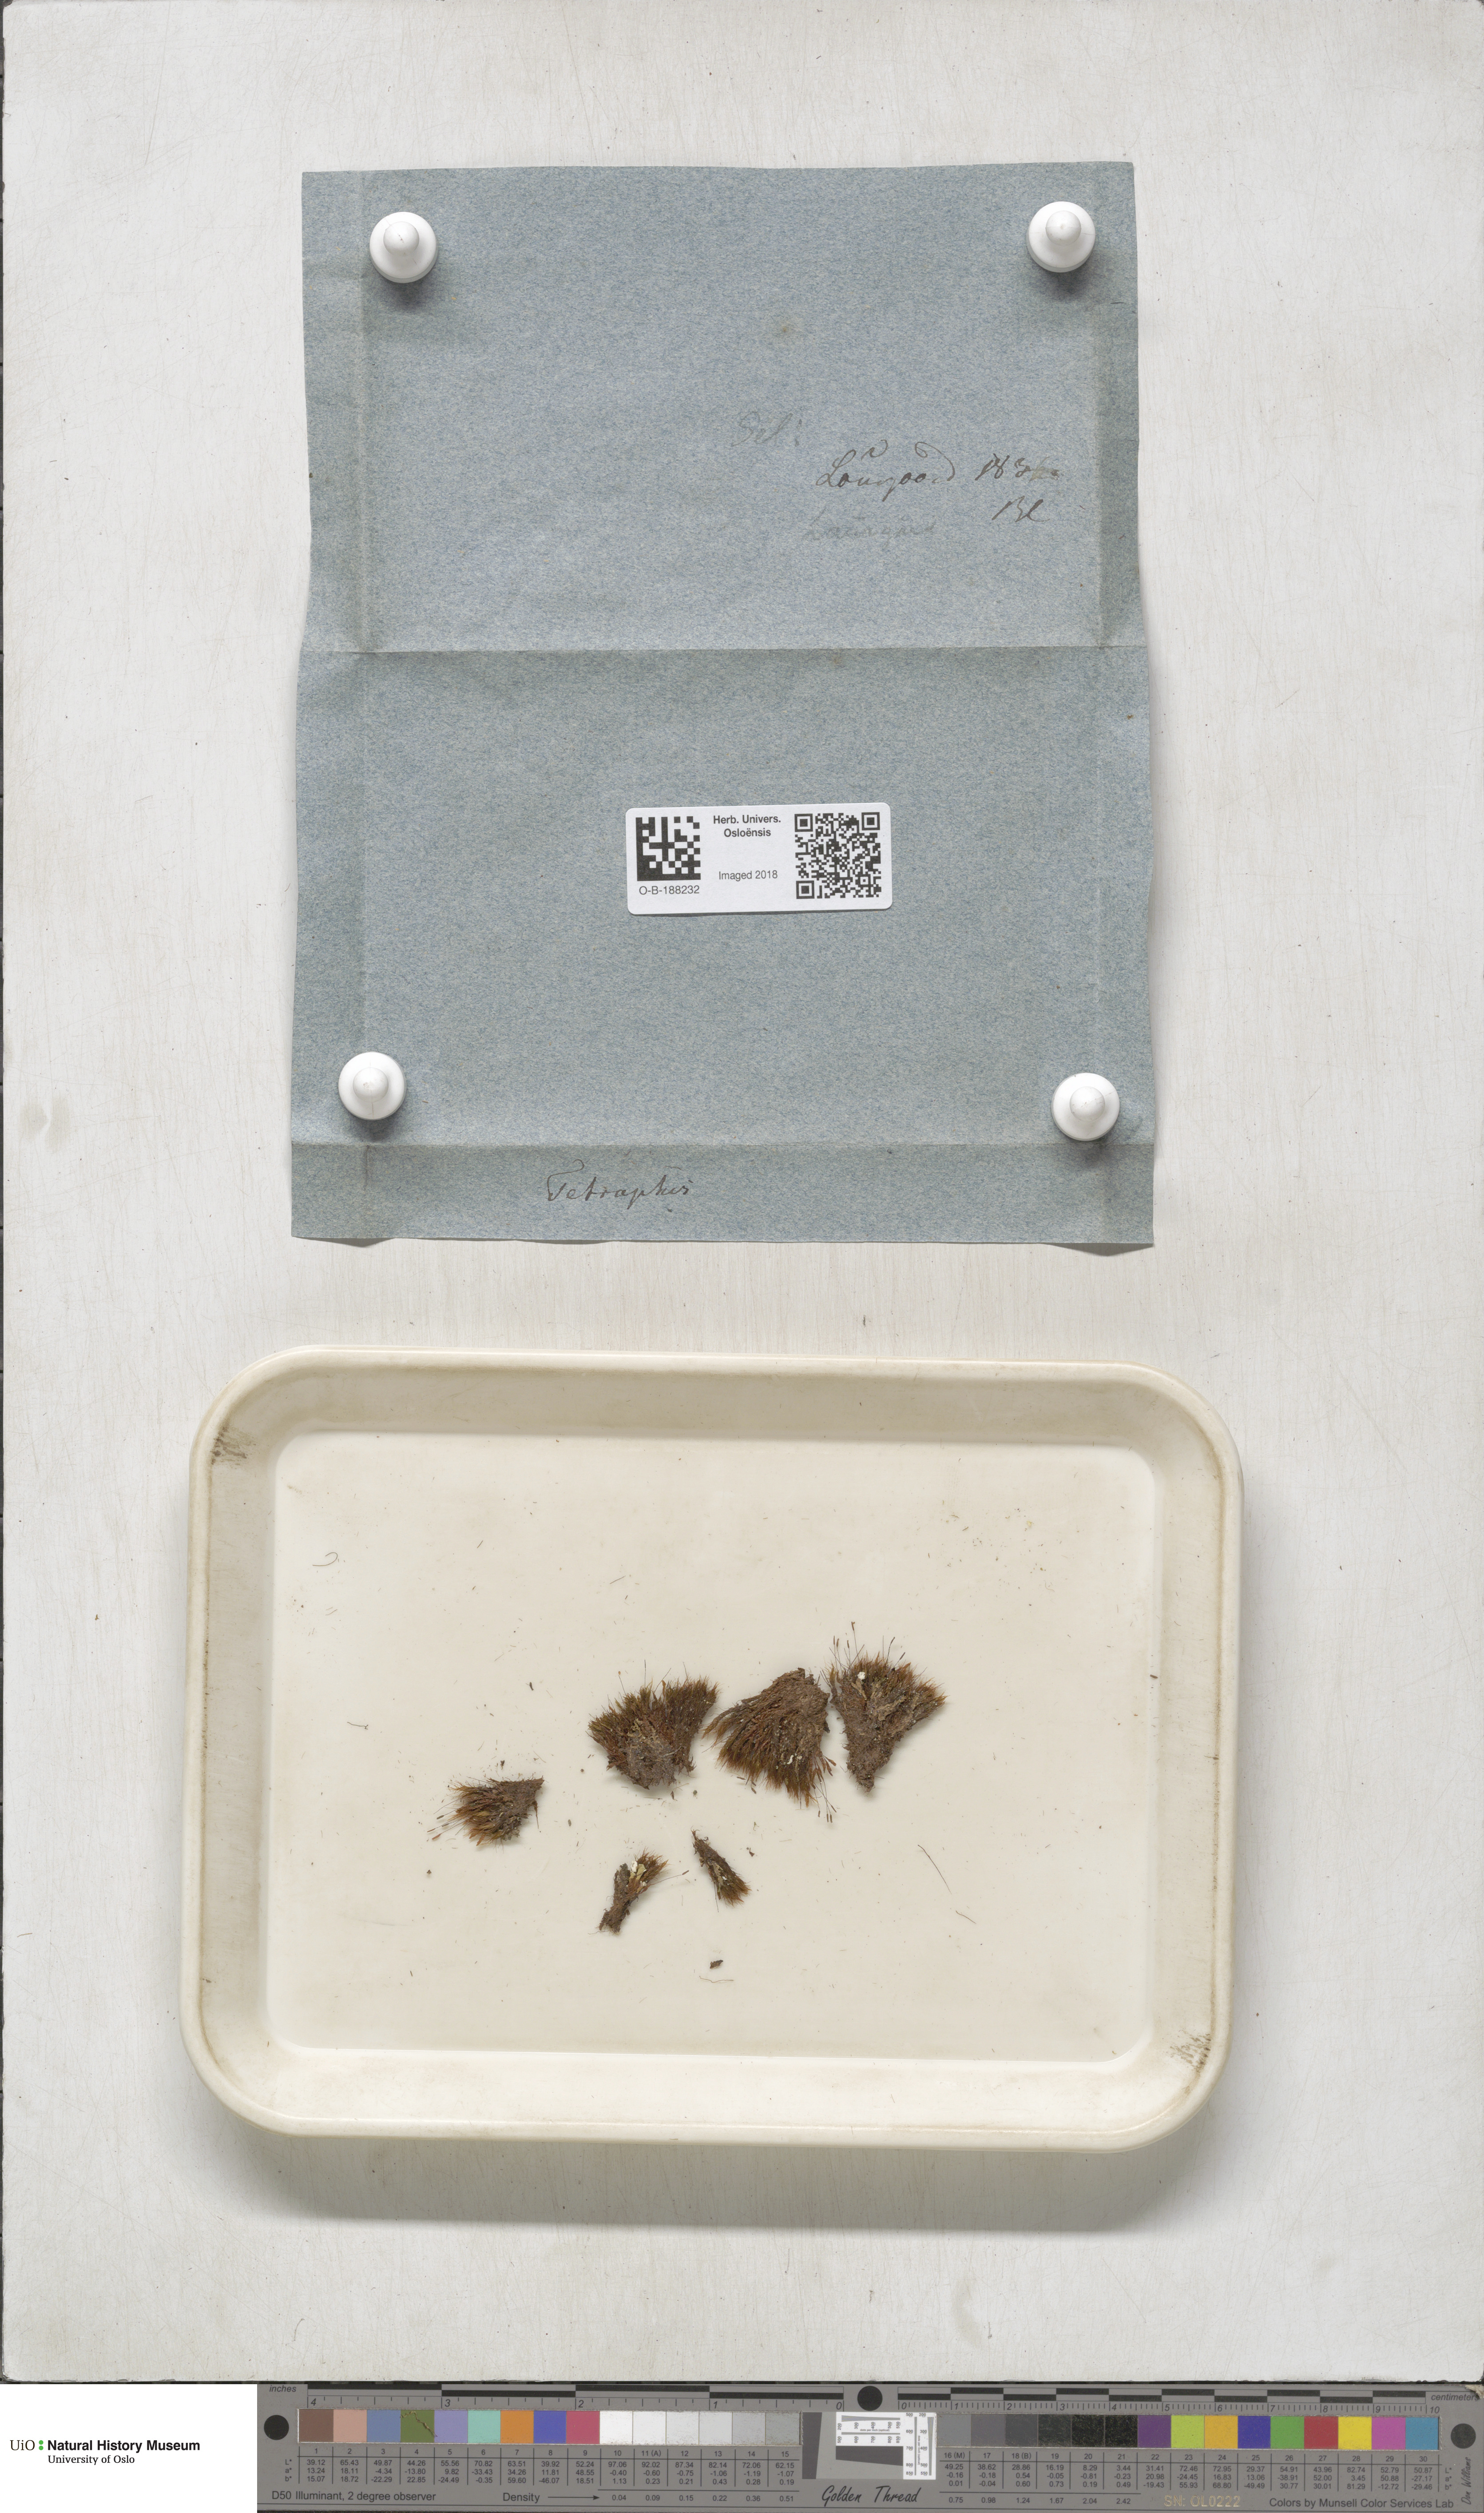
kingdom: Plantae
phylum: Bryophyta
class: Polytrichopsida
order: Tetraphidales
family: Tetraphidaceae
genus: Tetraphis
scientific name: Tetraphis pellucida
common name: Common four-toothed moss
